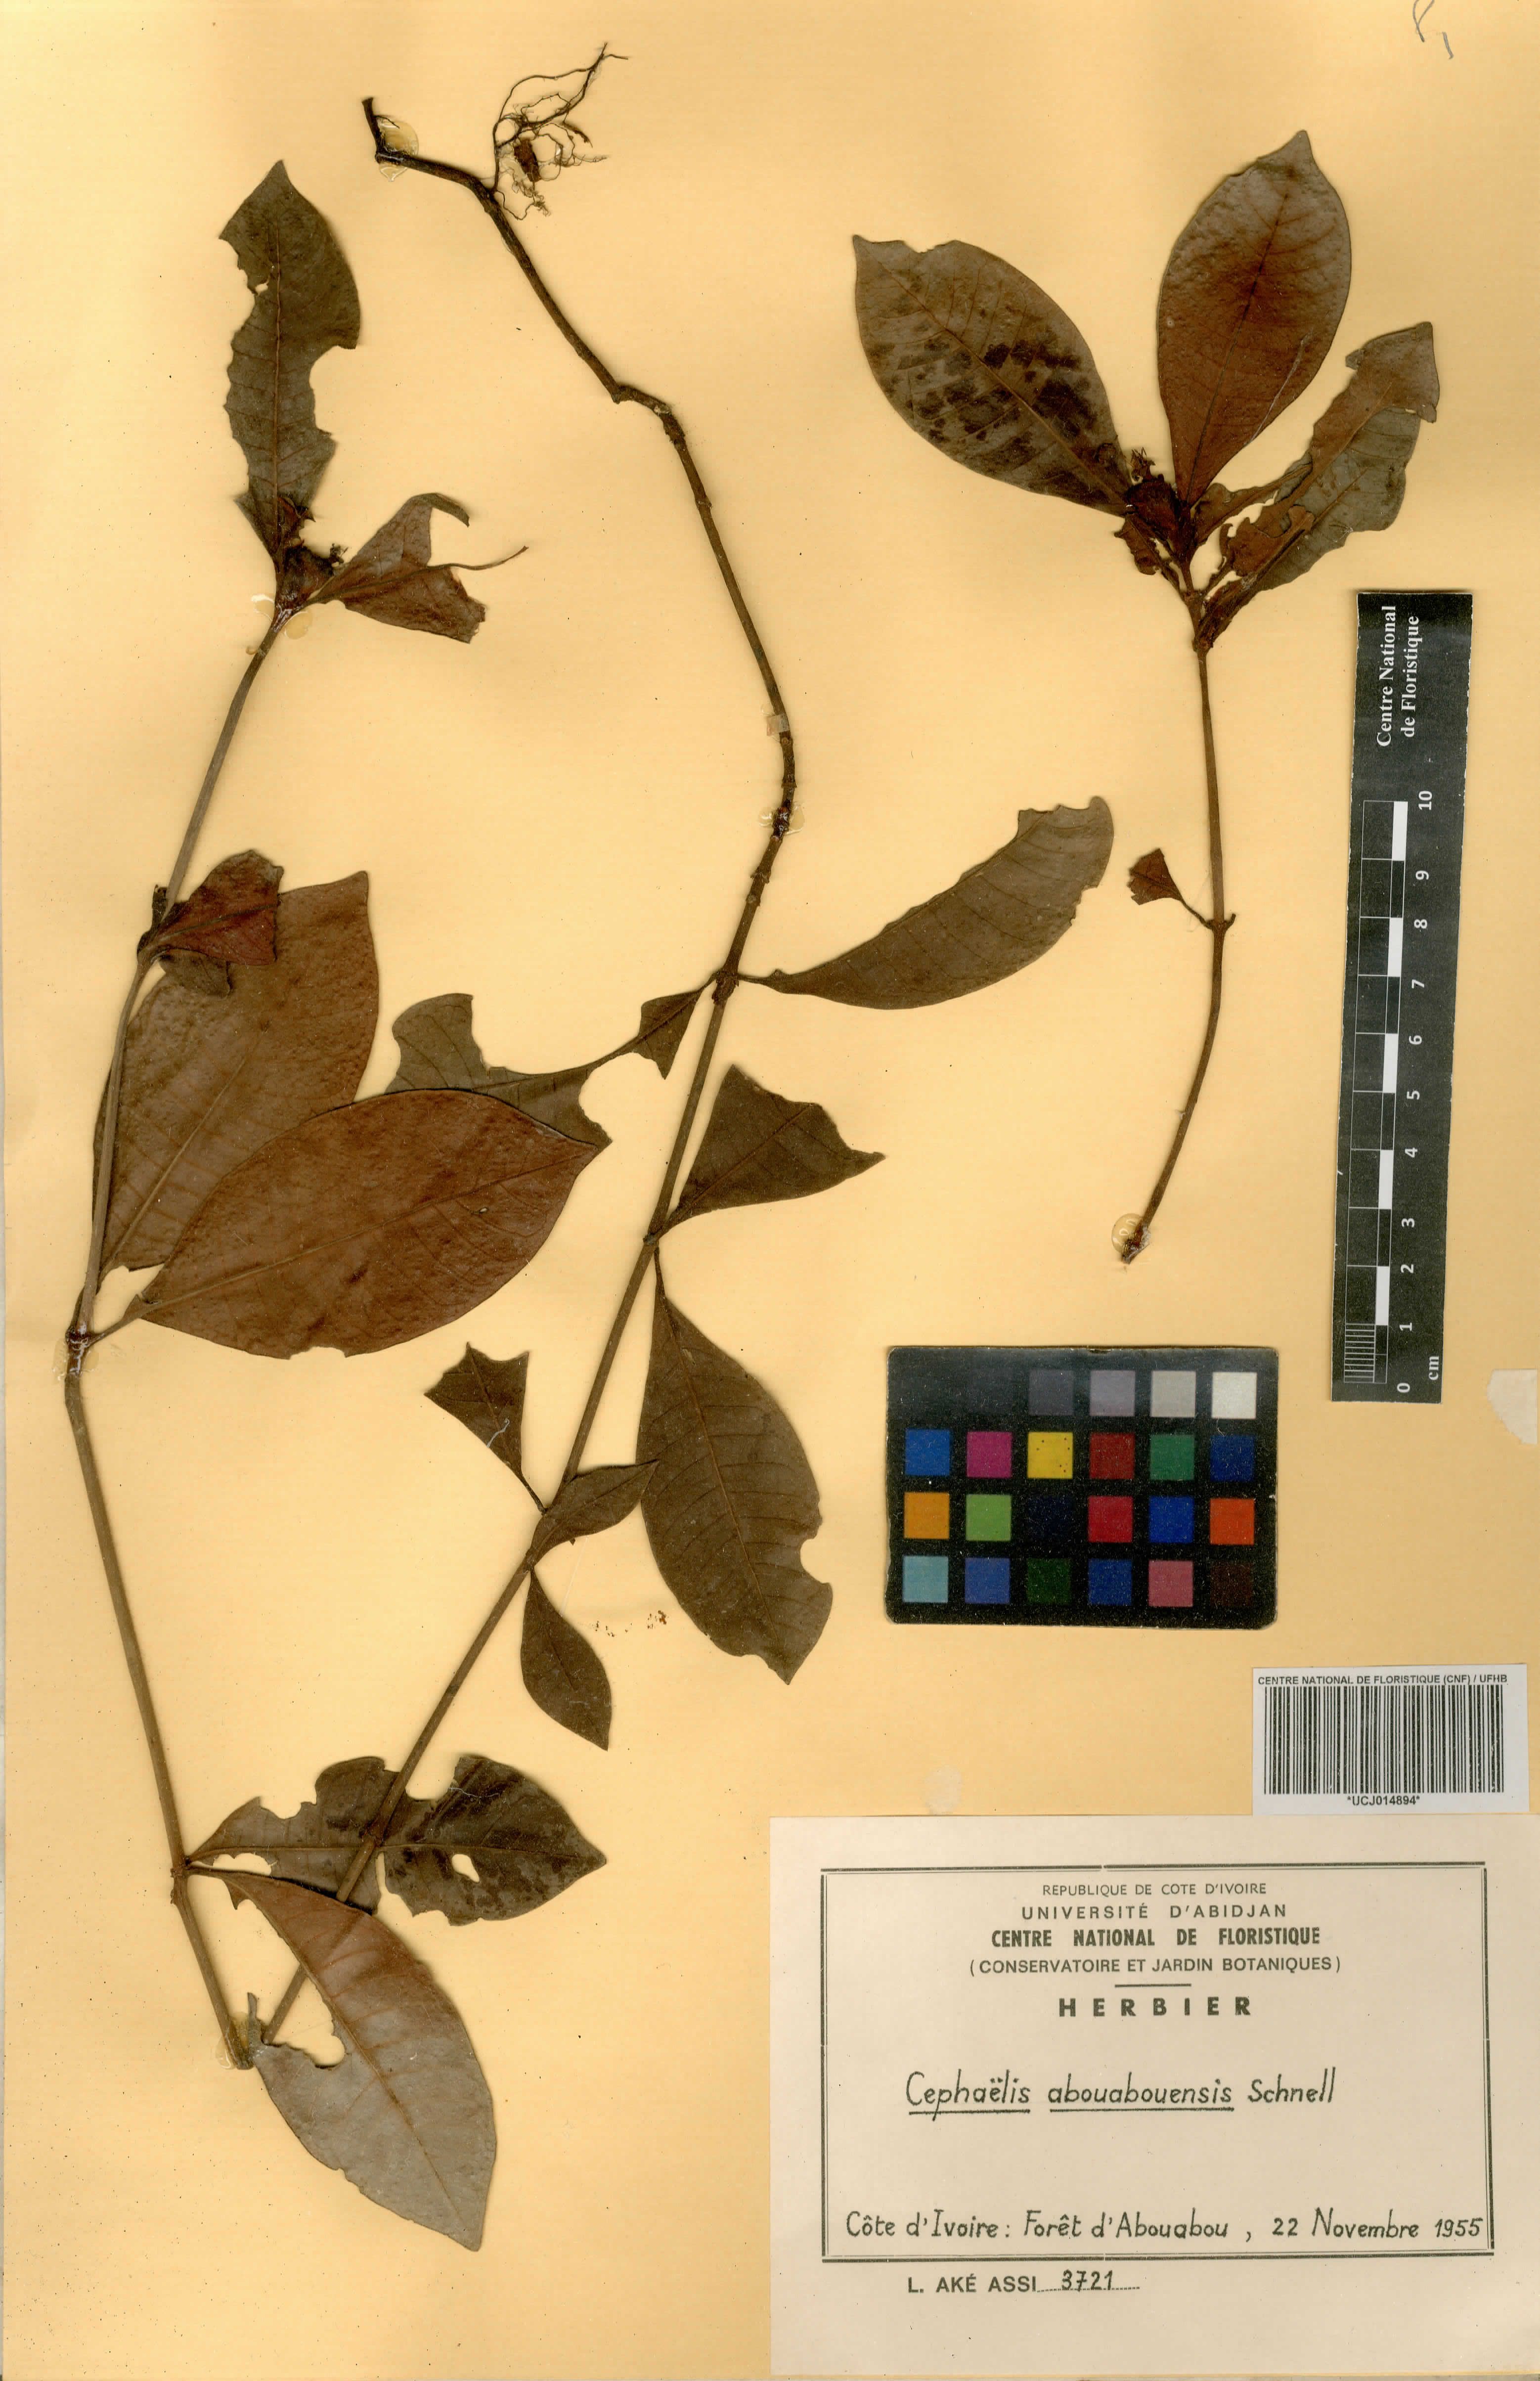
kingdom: Plantae
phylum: Tracheophyta
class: Magnoliopsida
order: Gentianales
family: Rubiaceae
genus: Psychotria
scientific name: Psychotria abouabouensis
